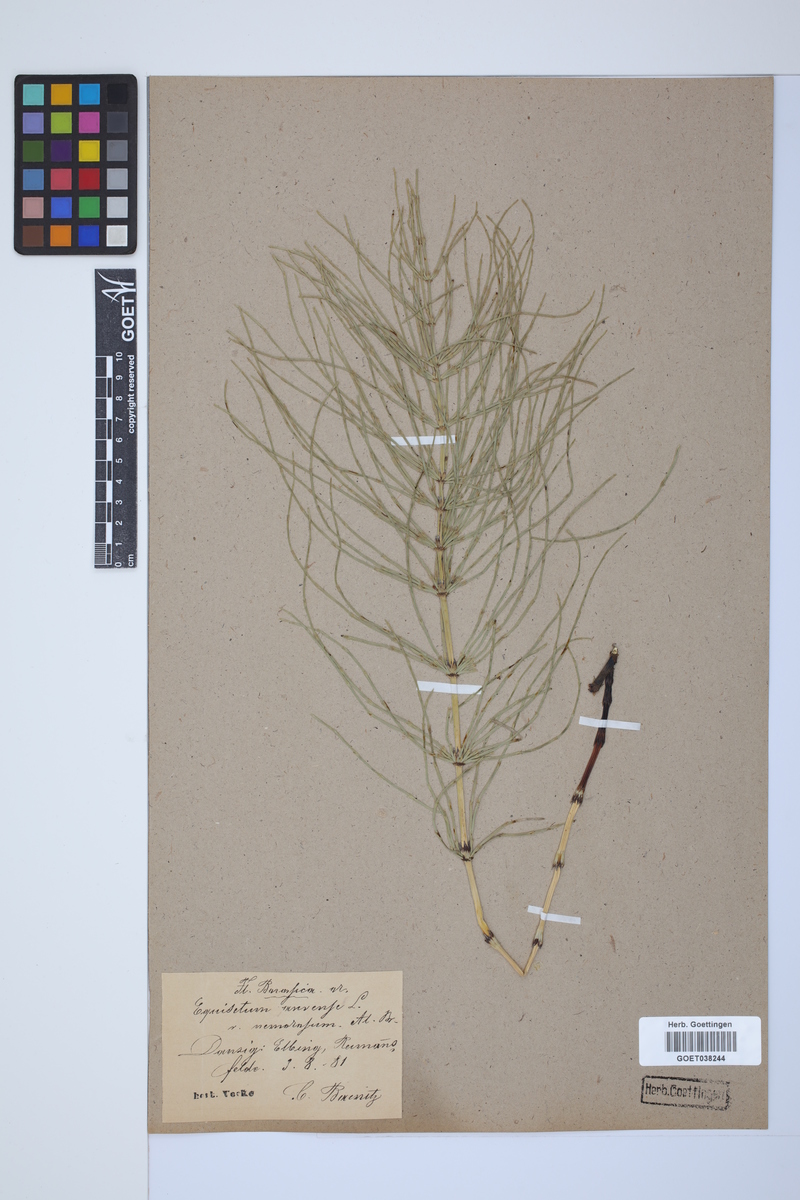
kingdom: Plantae
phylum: Tracheophyta
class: Polypodiopsida
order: Equisetales
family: Equisetaceae
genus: Equisetum
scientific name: Equisetum arvense
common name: Field horsetail
